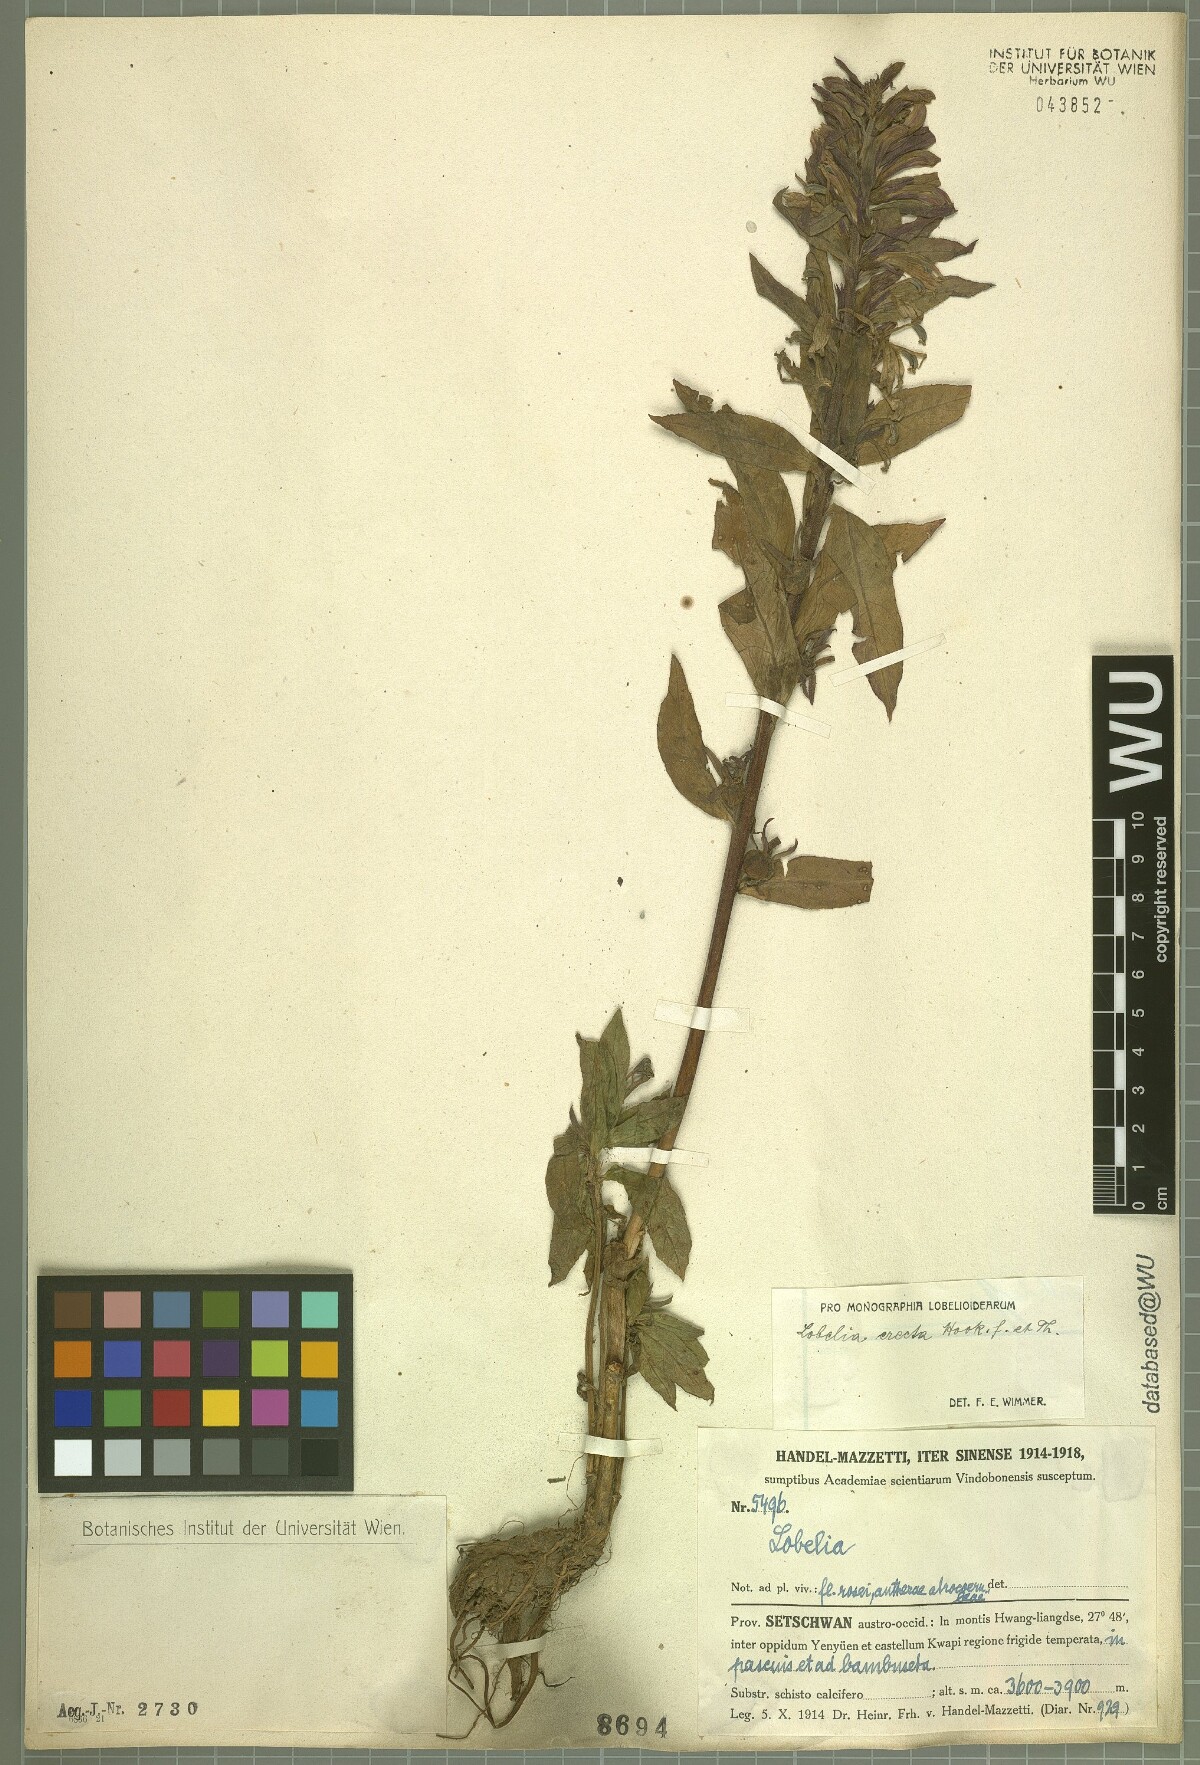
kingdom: Plantae
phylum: Tracheophyta
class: Magnoliopsida
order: Asterales
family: Campanulaceae
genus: Lobelia
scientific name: Lobelia erectiuscula
